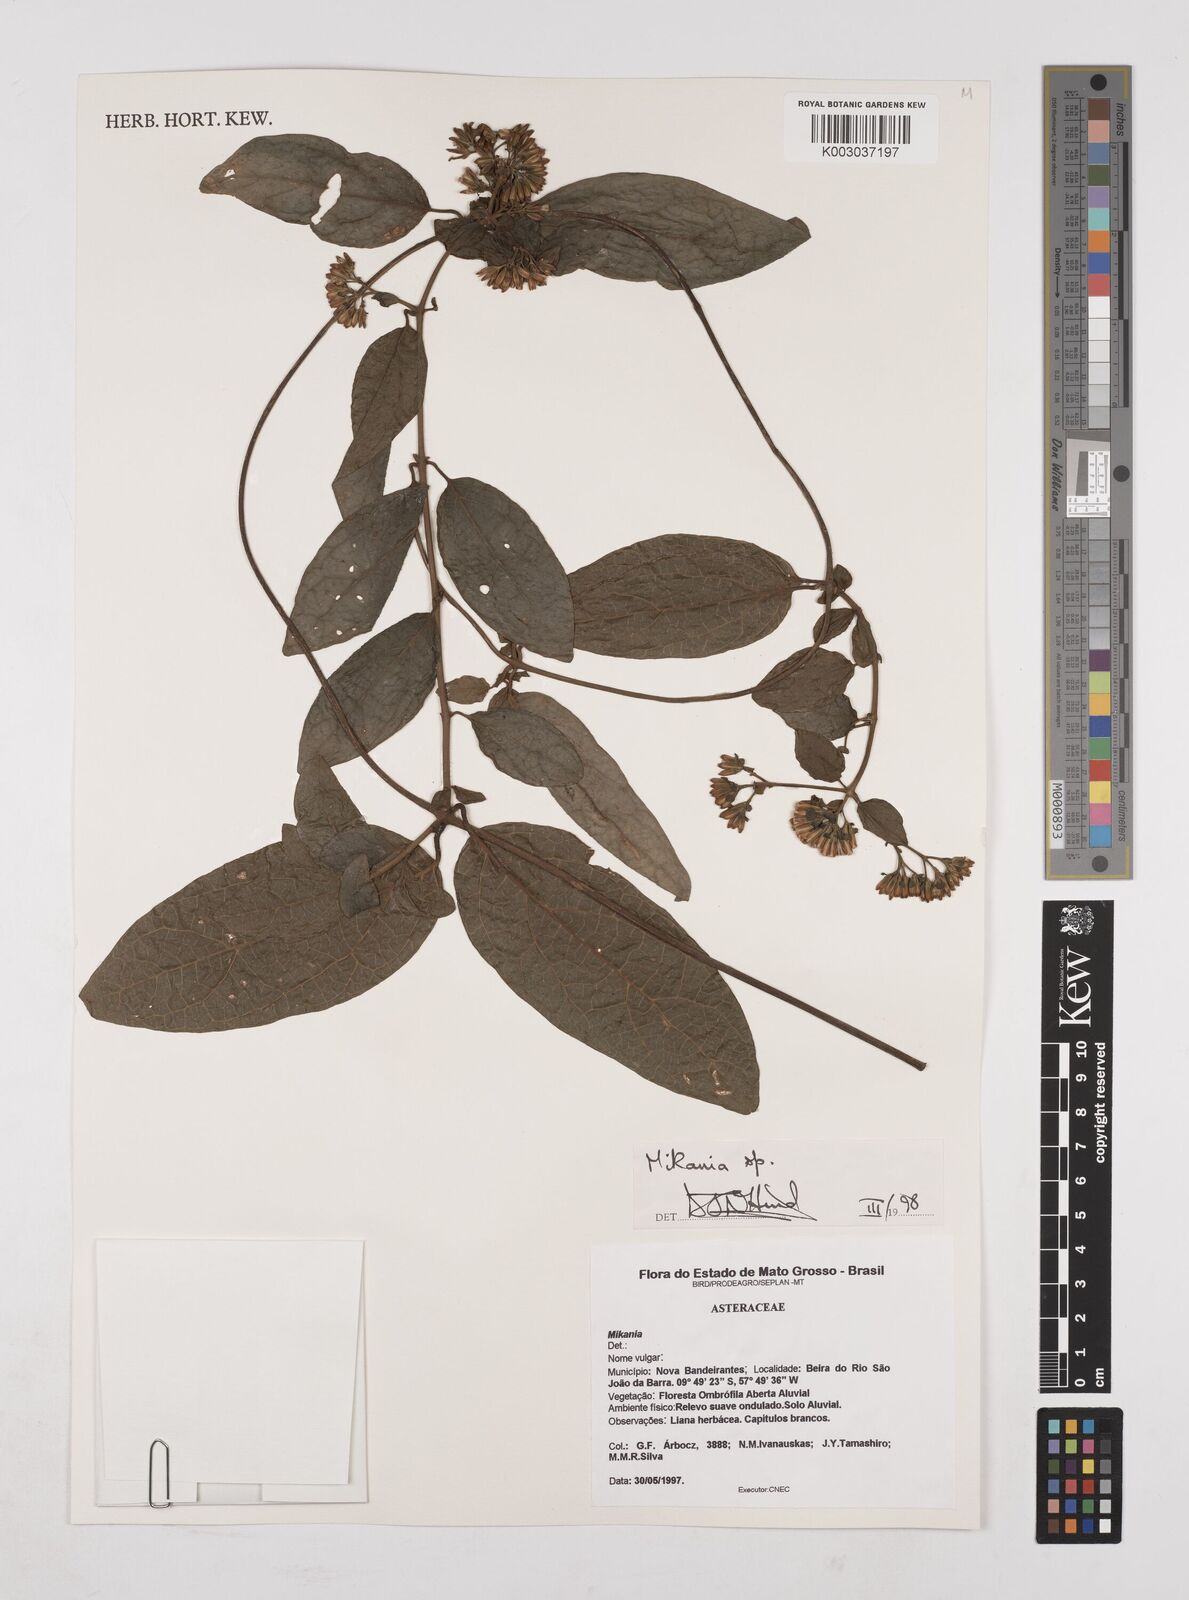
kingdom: Plantae
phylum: Tracheophyta
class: Magnoliopsida
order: Asterales
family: Asteraceae
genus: Mikania
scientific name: Mikania
